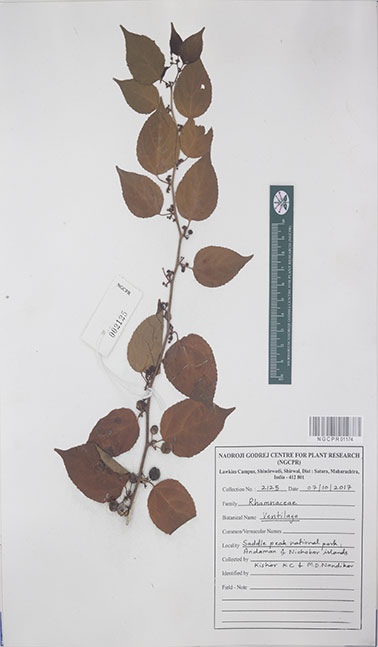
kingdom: Plantae
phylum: Tracheophyta
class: Magnoliopsida
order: Rosales
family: Rhamnaceae
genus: Ventilago
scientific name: Ventilago
